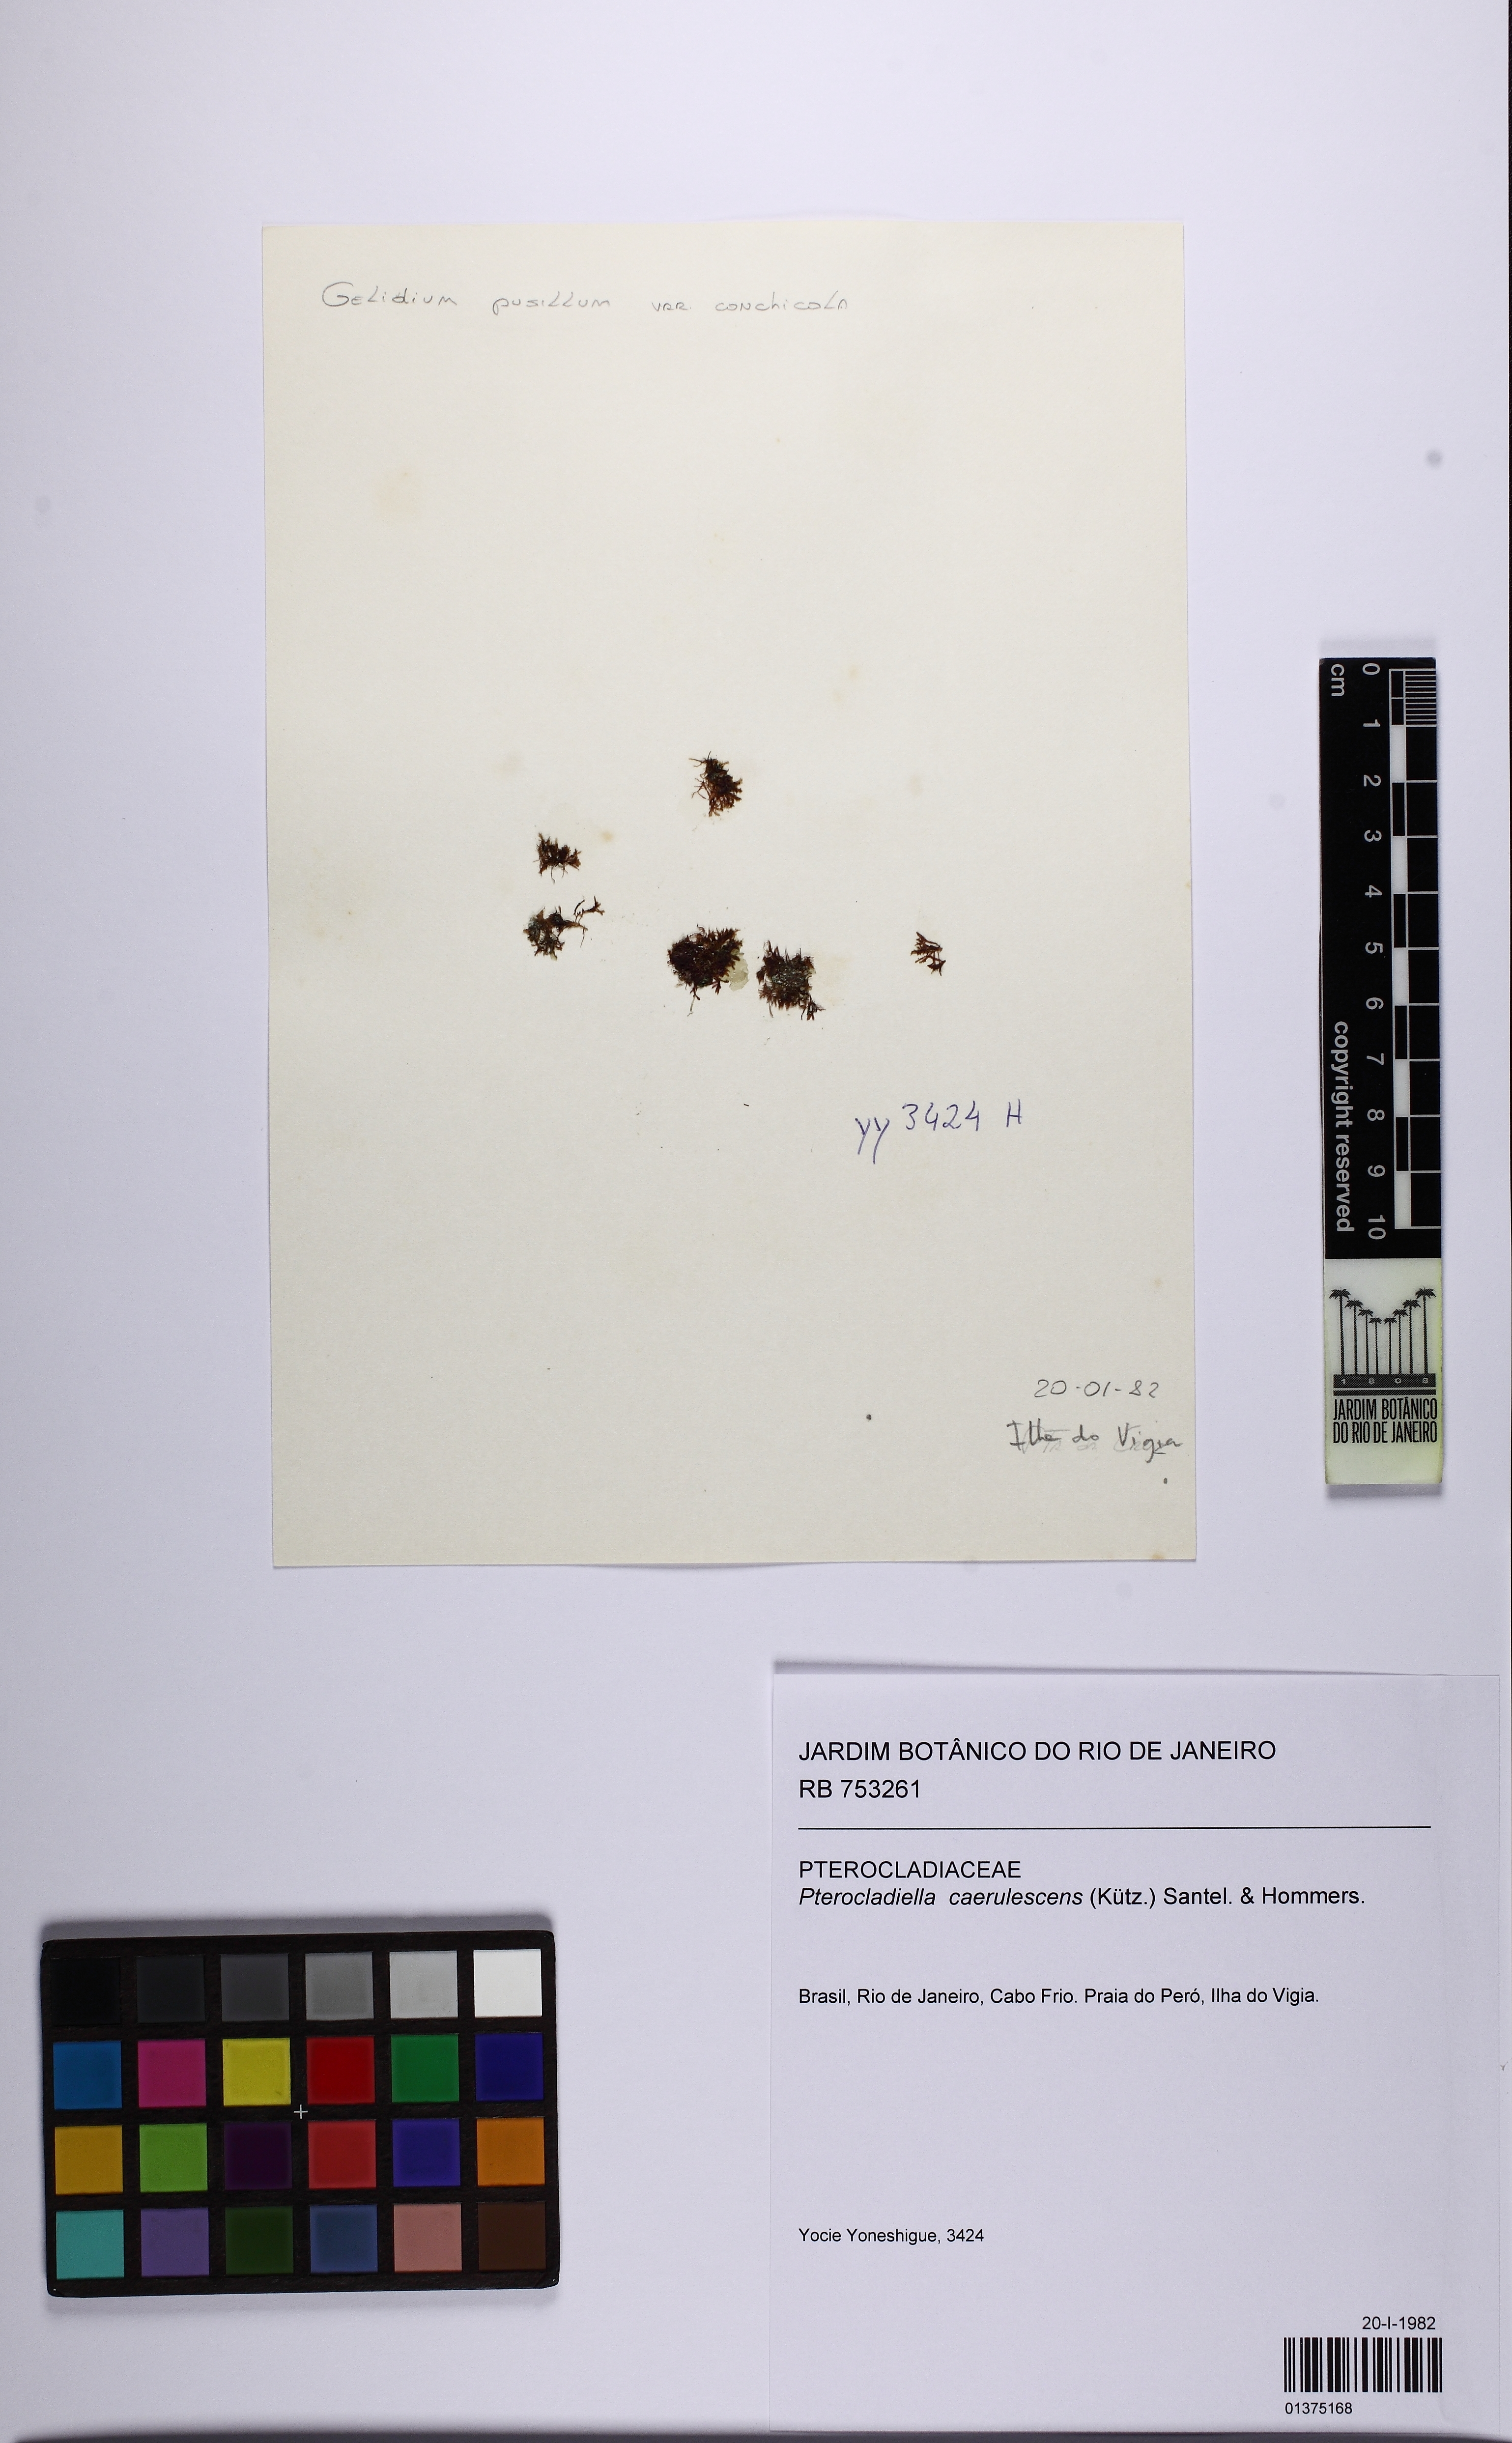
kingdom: Plantae
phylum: Rhodophyta
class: Florideophyceae
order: Gelidiales
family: Pterocladiaceae
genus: Pterocladiella
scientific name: Pterocladiella caerulescens
